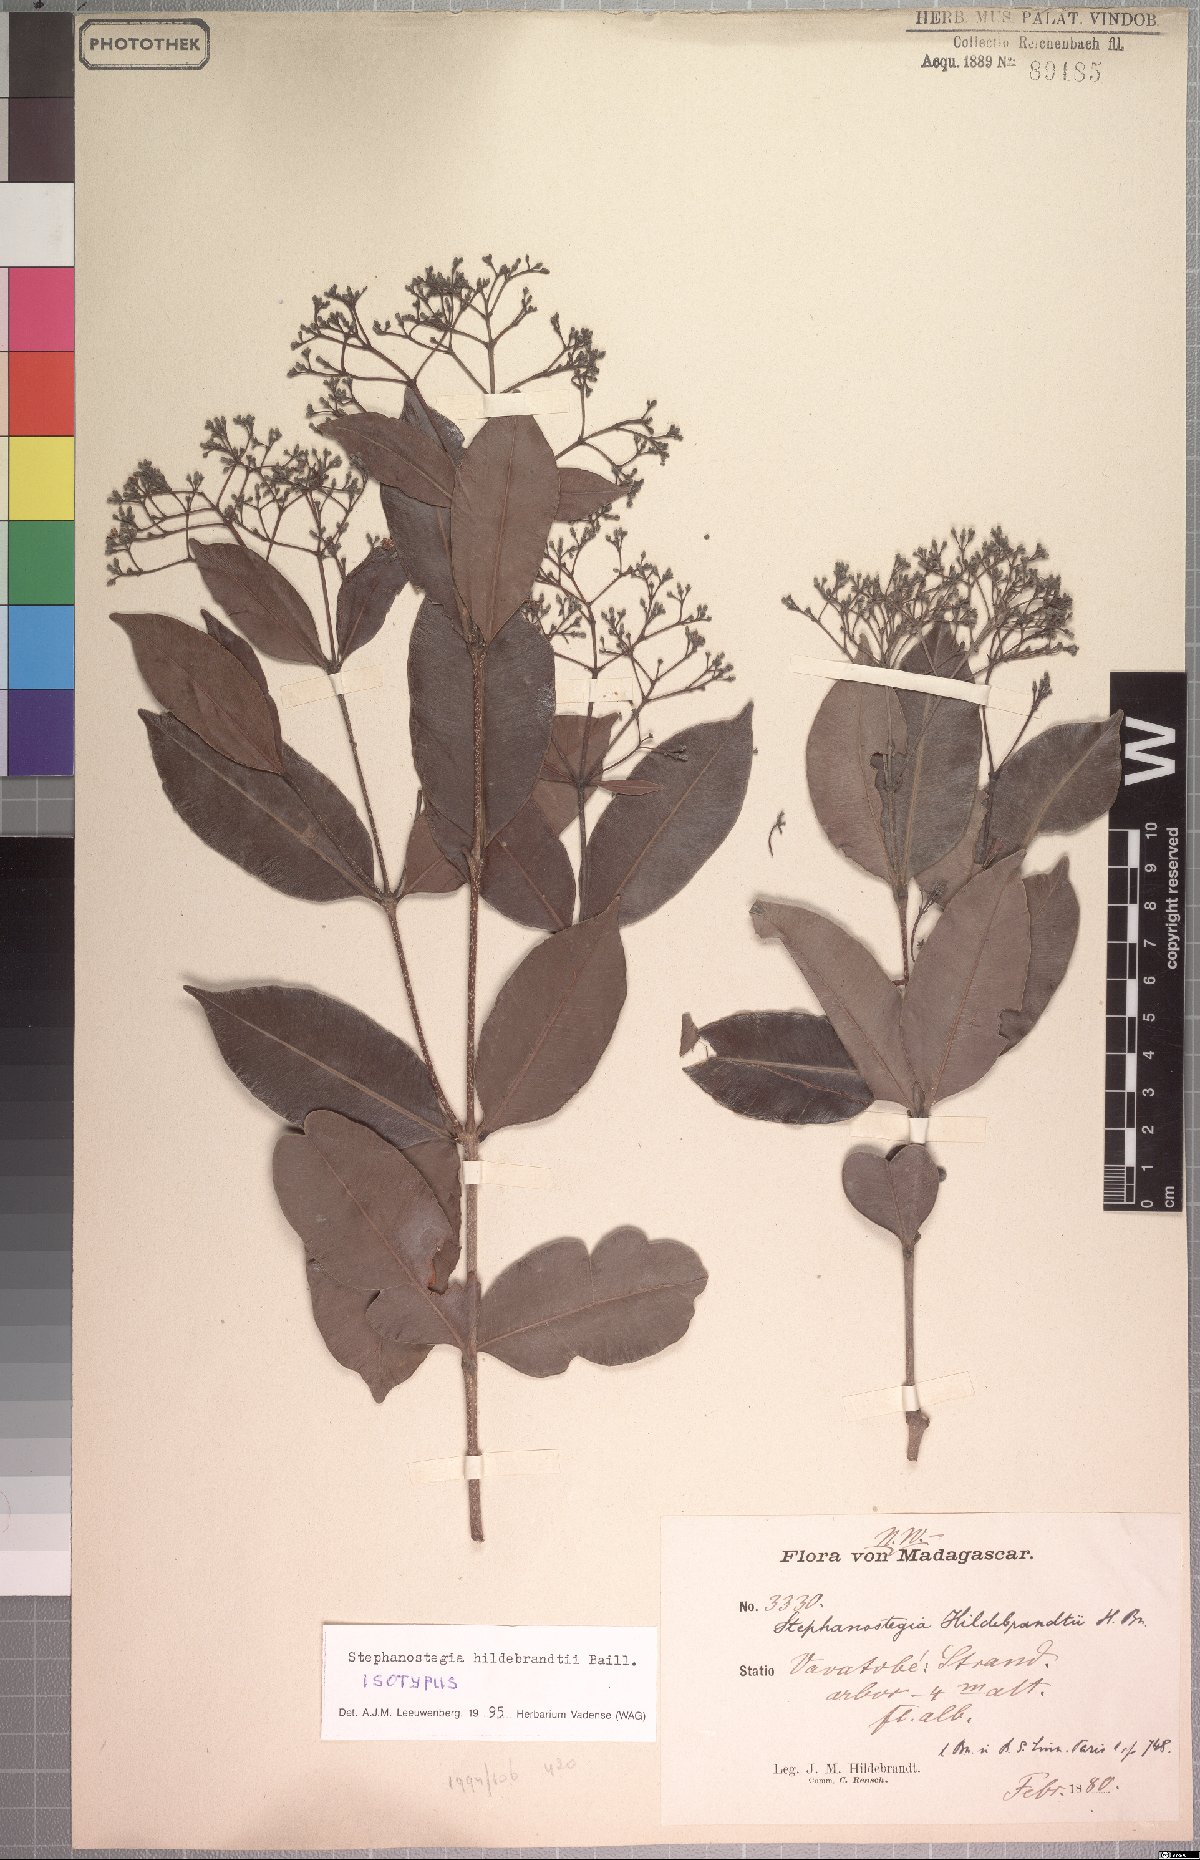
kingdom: Plantae
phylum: Tracheophyta
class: Magnoliopsida
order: Gentianales
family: Apocynaceae
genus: Stephanostegia
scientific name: Stephanostegia hildebrandtii
